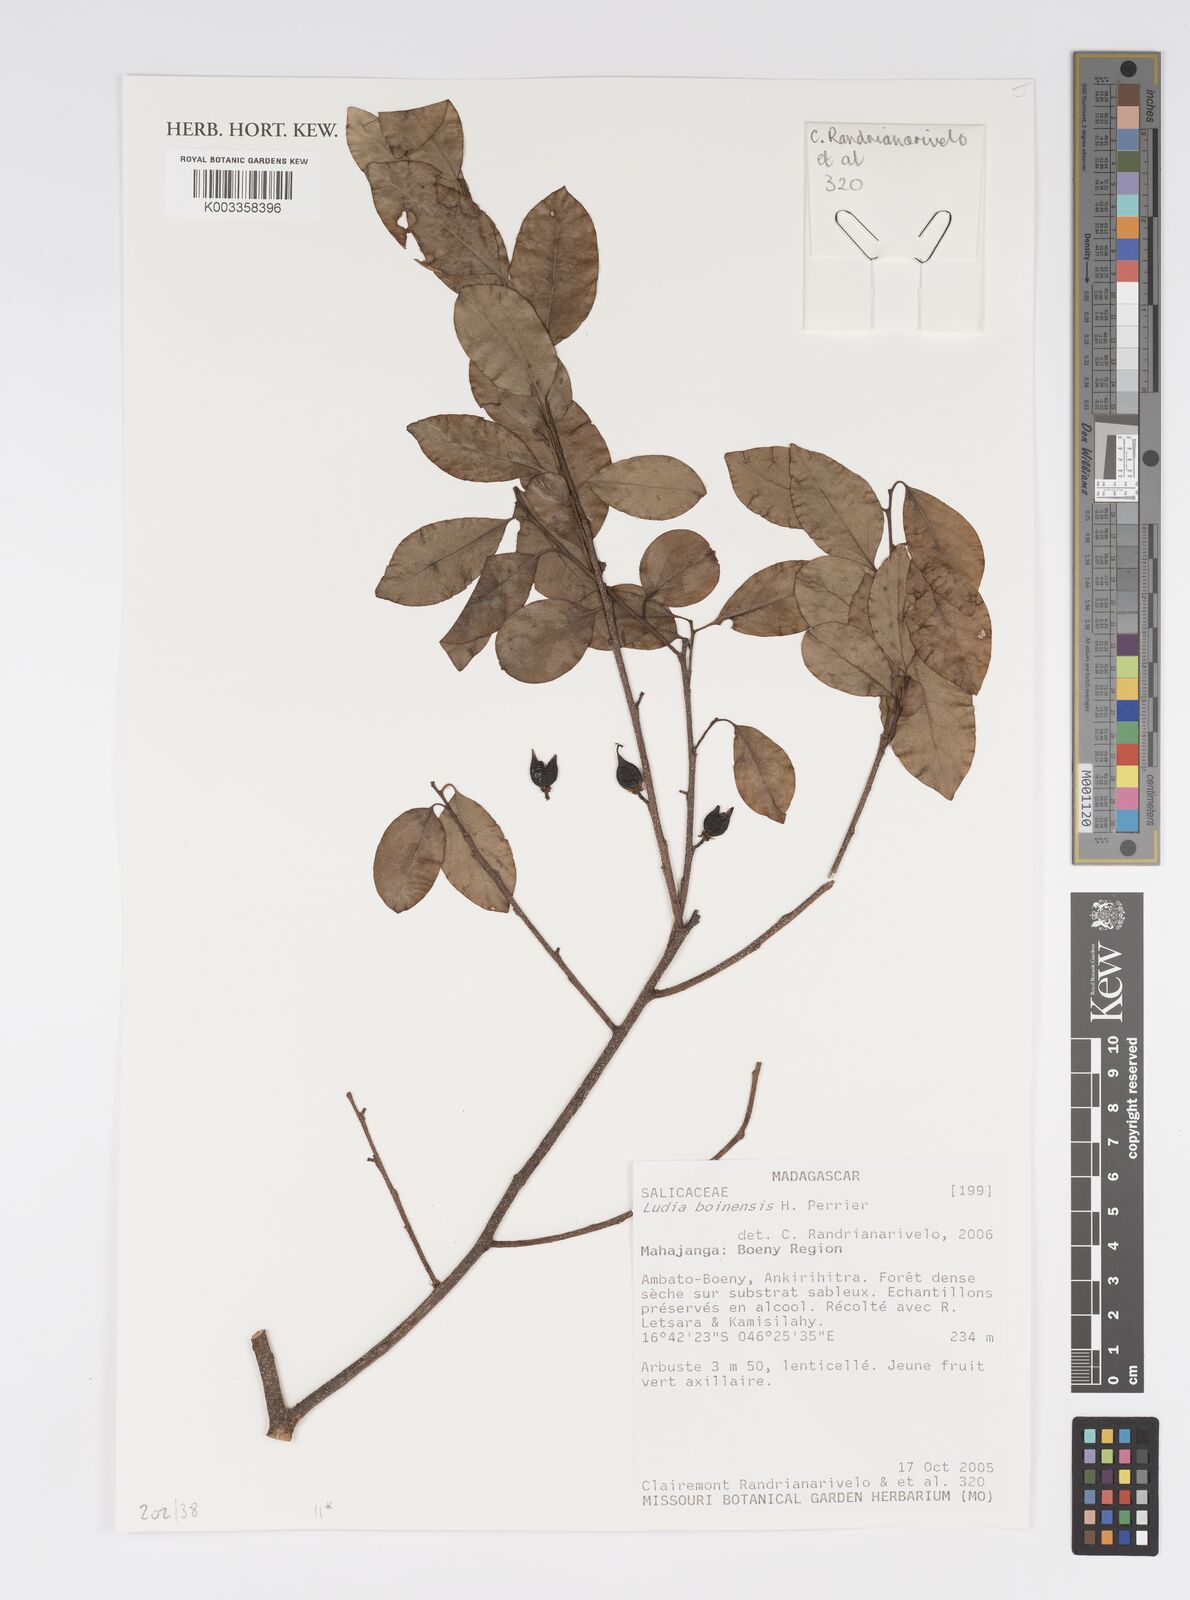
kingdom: Plantae
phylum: Tracheophyta
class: Magnoliopsida
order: Malpighiales
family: Salicaceae
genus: Ludia
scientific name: Ludia boinensis
